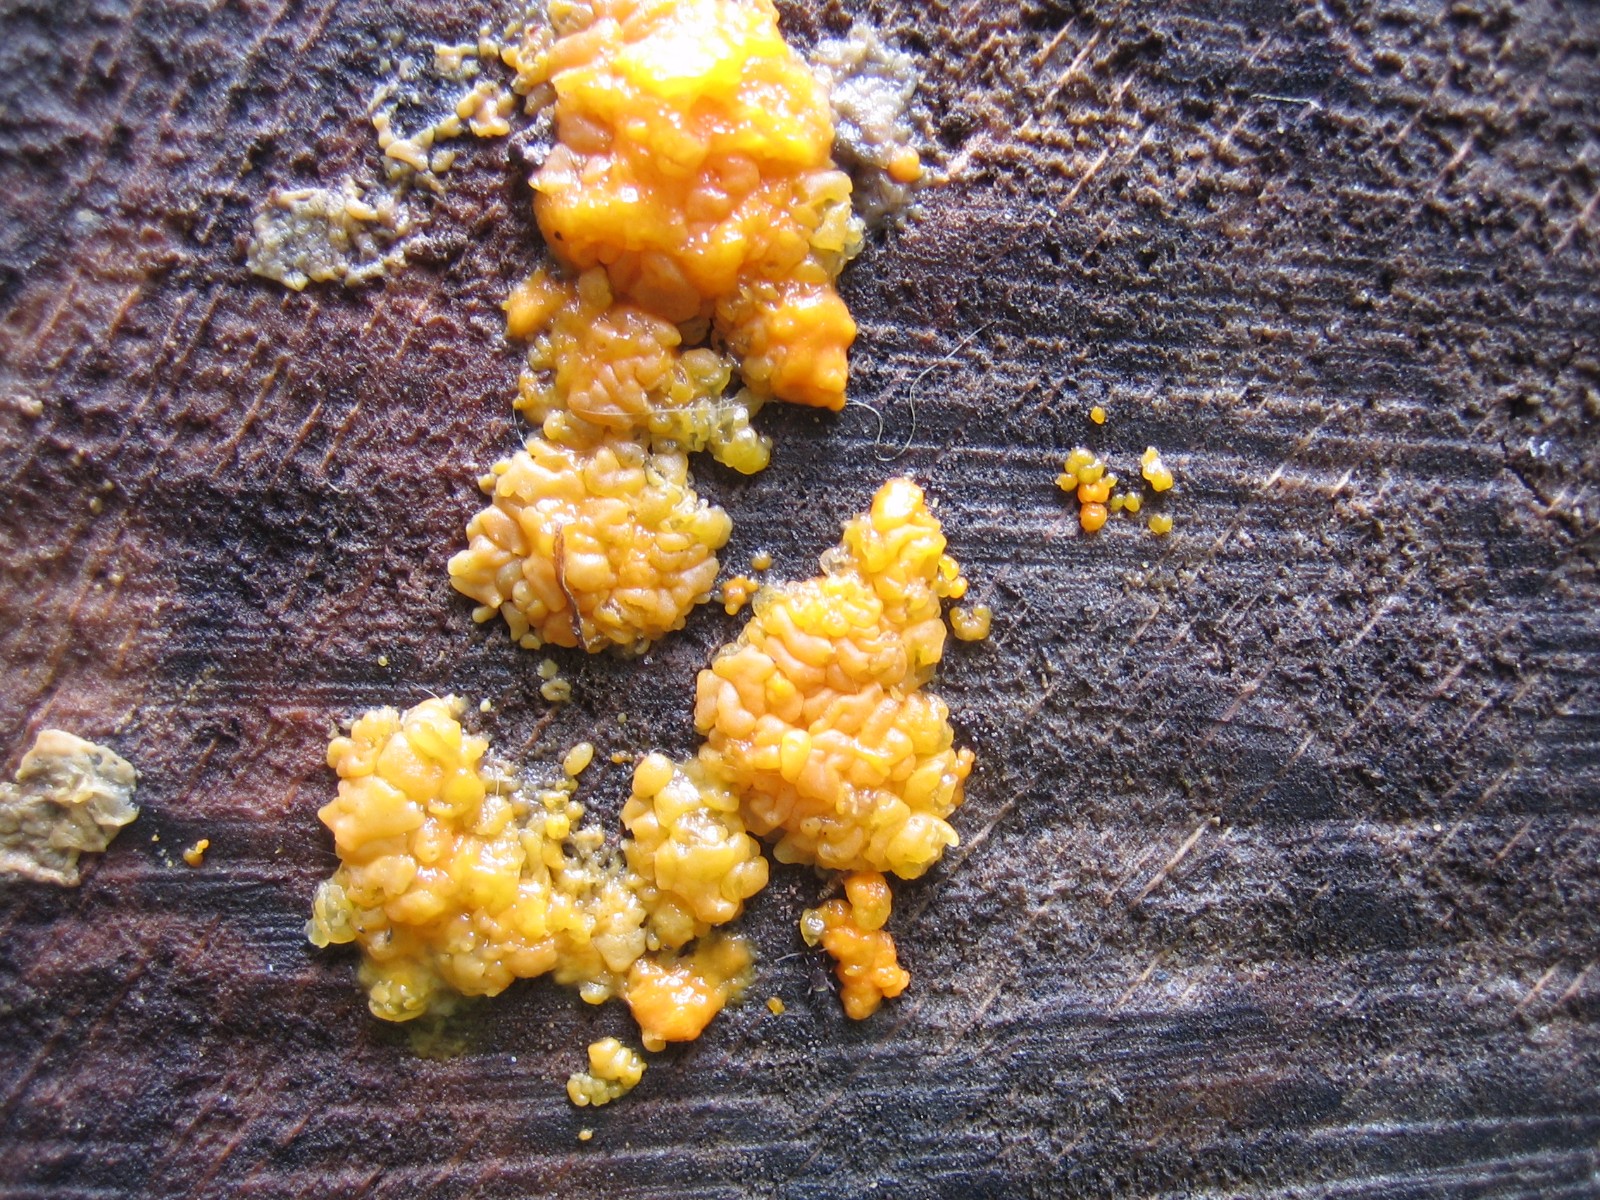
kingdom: Fungi
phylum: Basidiomycota
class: Dacrymycetes
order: Dacrymycetales
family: Dacrymycetaceae
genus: Dacrymyces
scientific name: Dacrymyces stillatus
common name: almindelig tåresvamp
